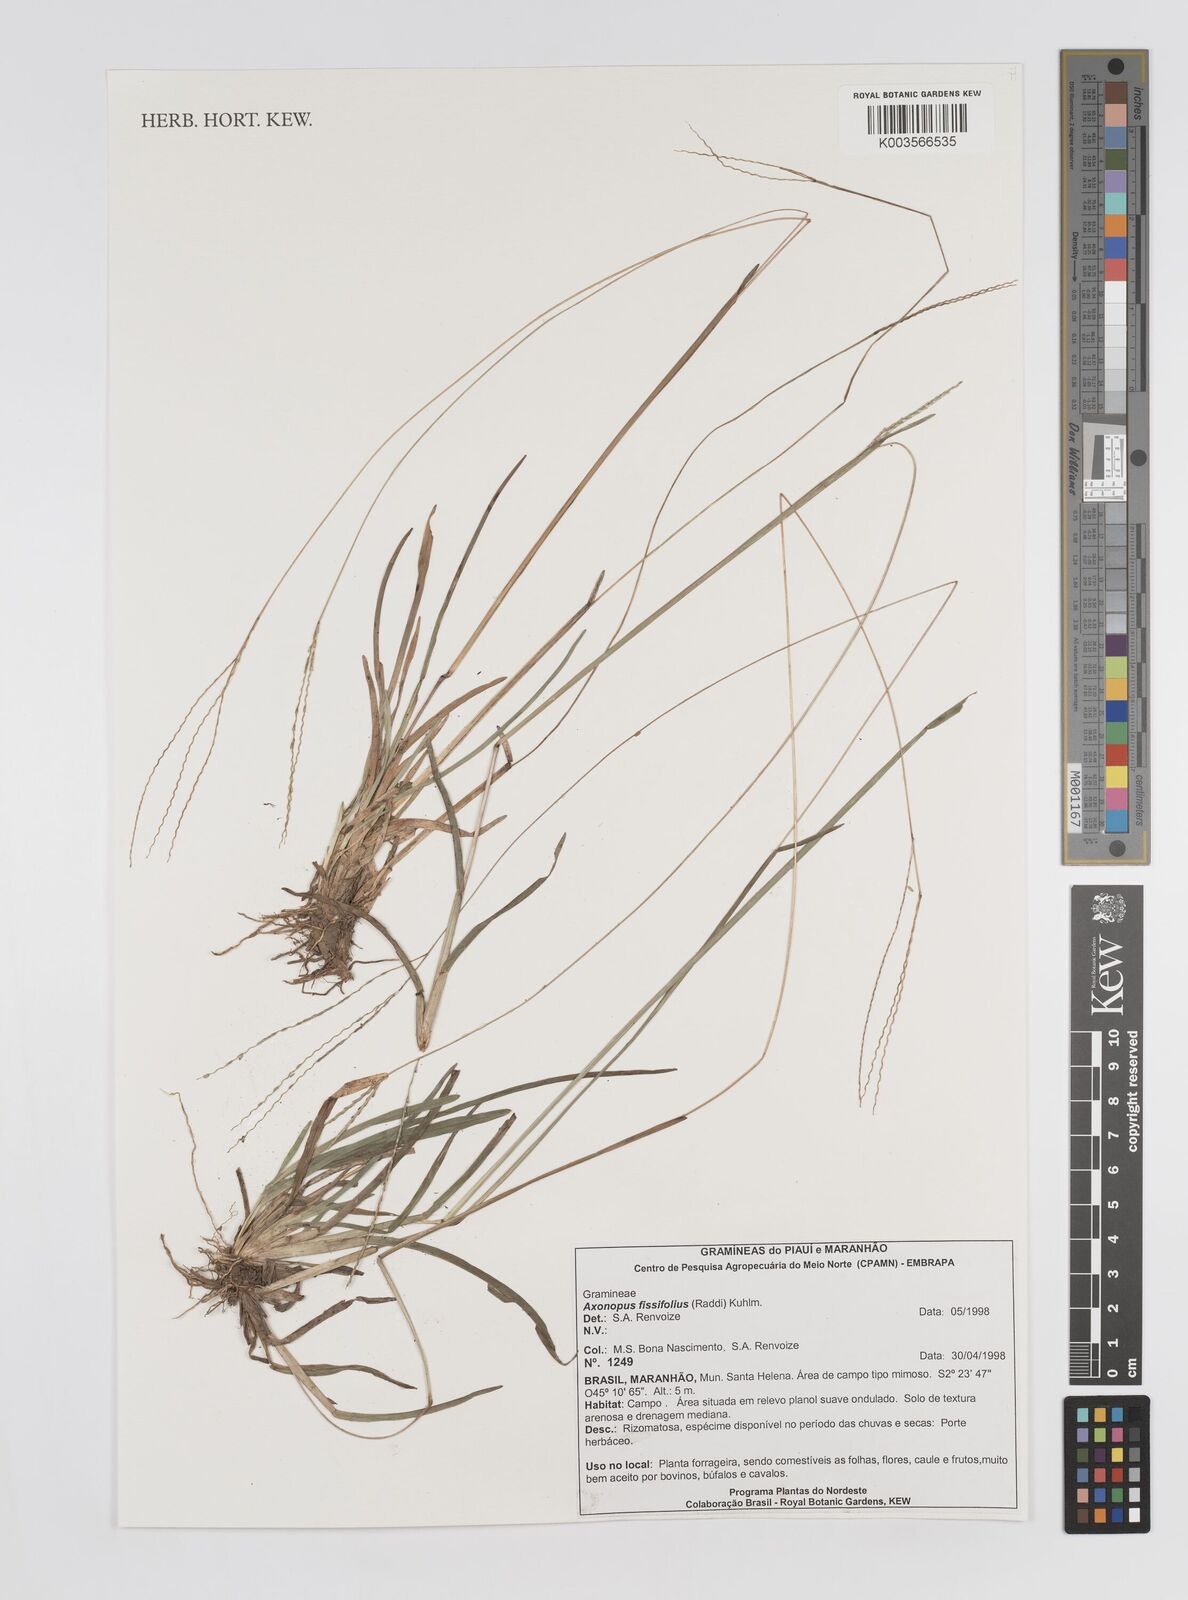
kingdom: Plantae
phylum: Tracheophyta
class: Liliopsida
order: Poales
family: Poaceae
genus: Axonopus
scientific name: Axonopus fissifolius
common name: Common carpetgrass
